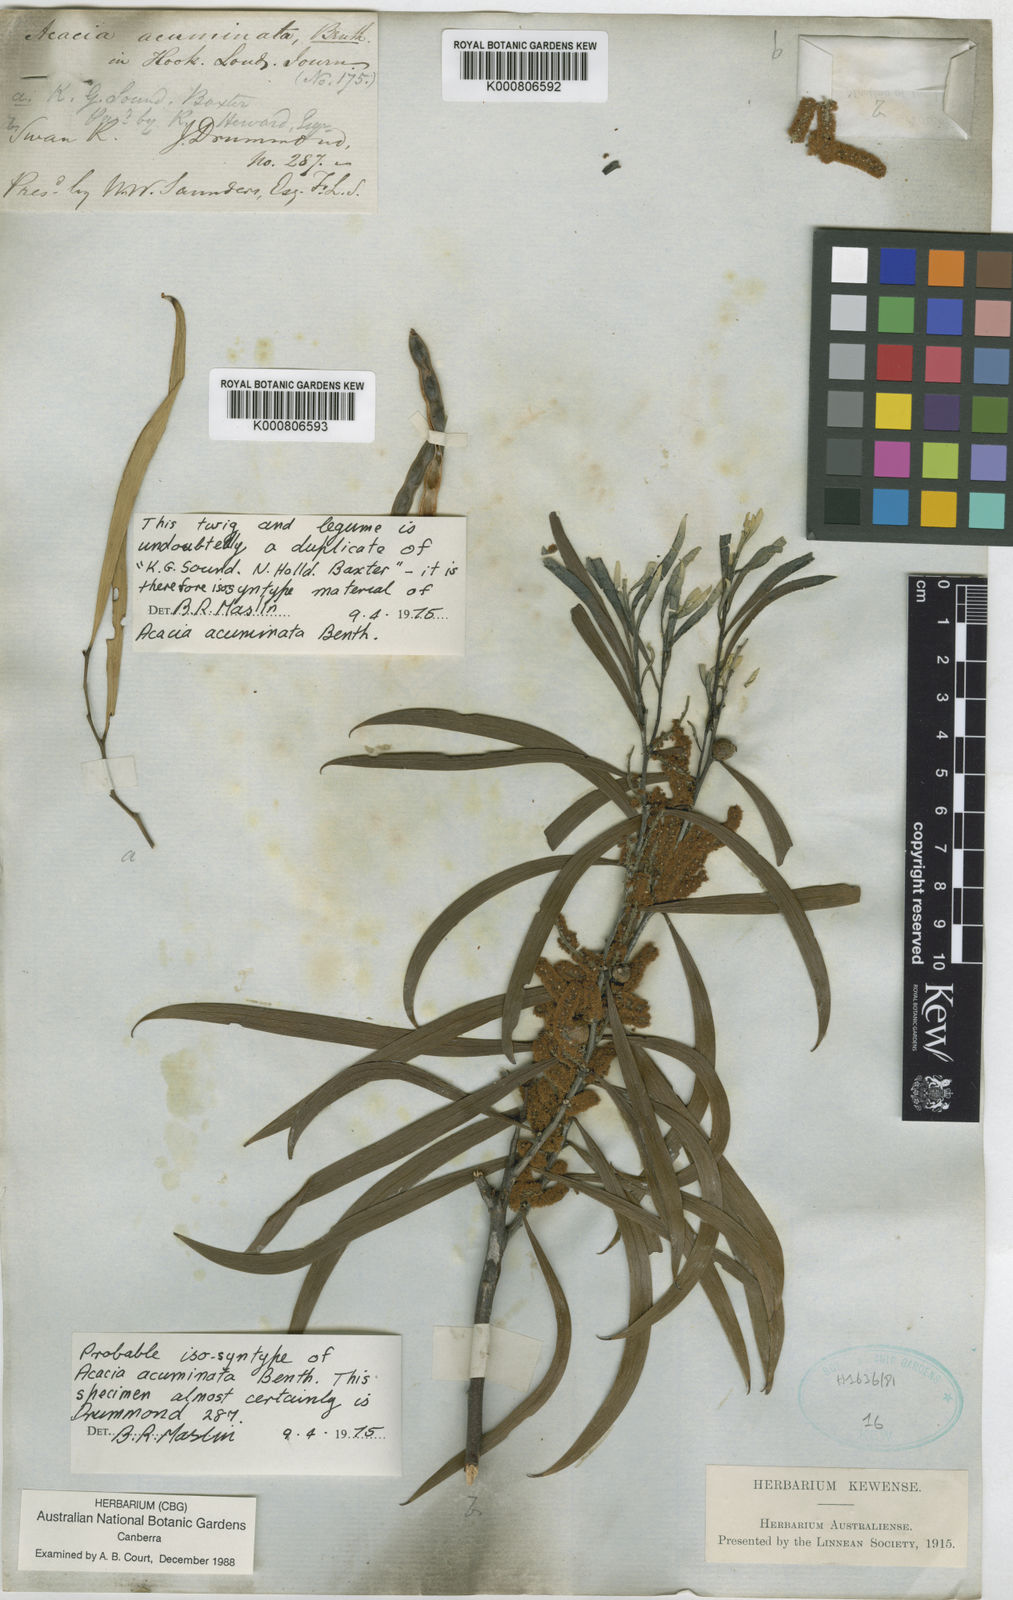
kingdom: Plantae
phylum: Tracheophyta
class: Magnoliopsida
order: Fabales
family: Fabaceae
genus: Acacia
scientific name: Acacia acuminata
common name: Jam wattle
